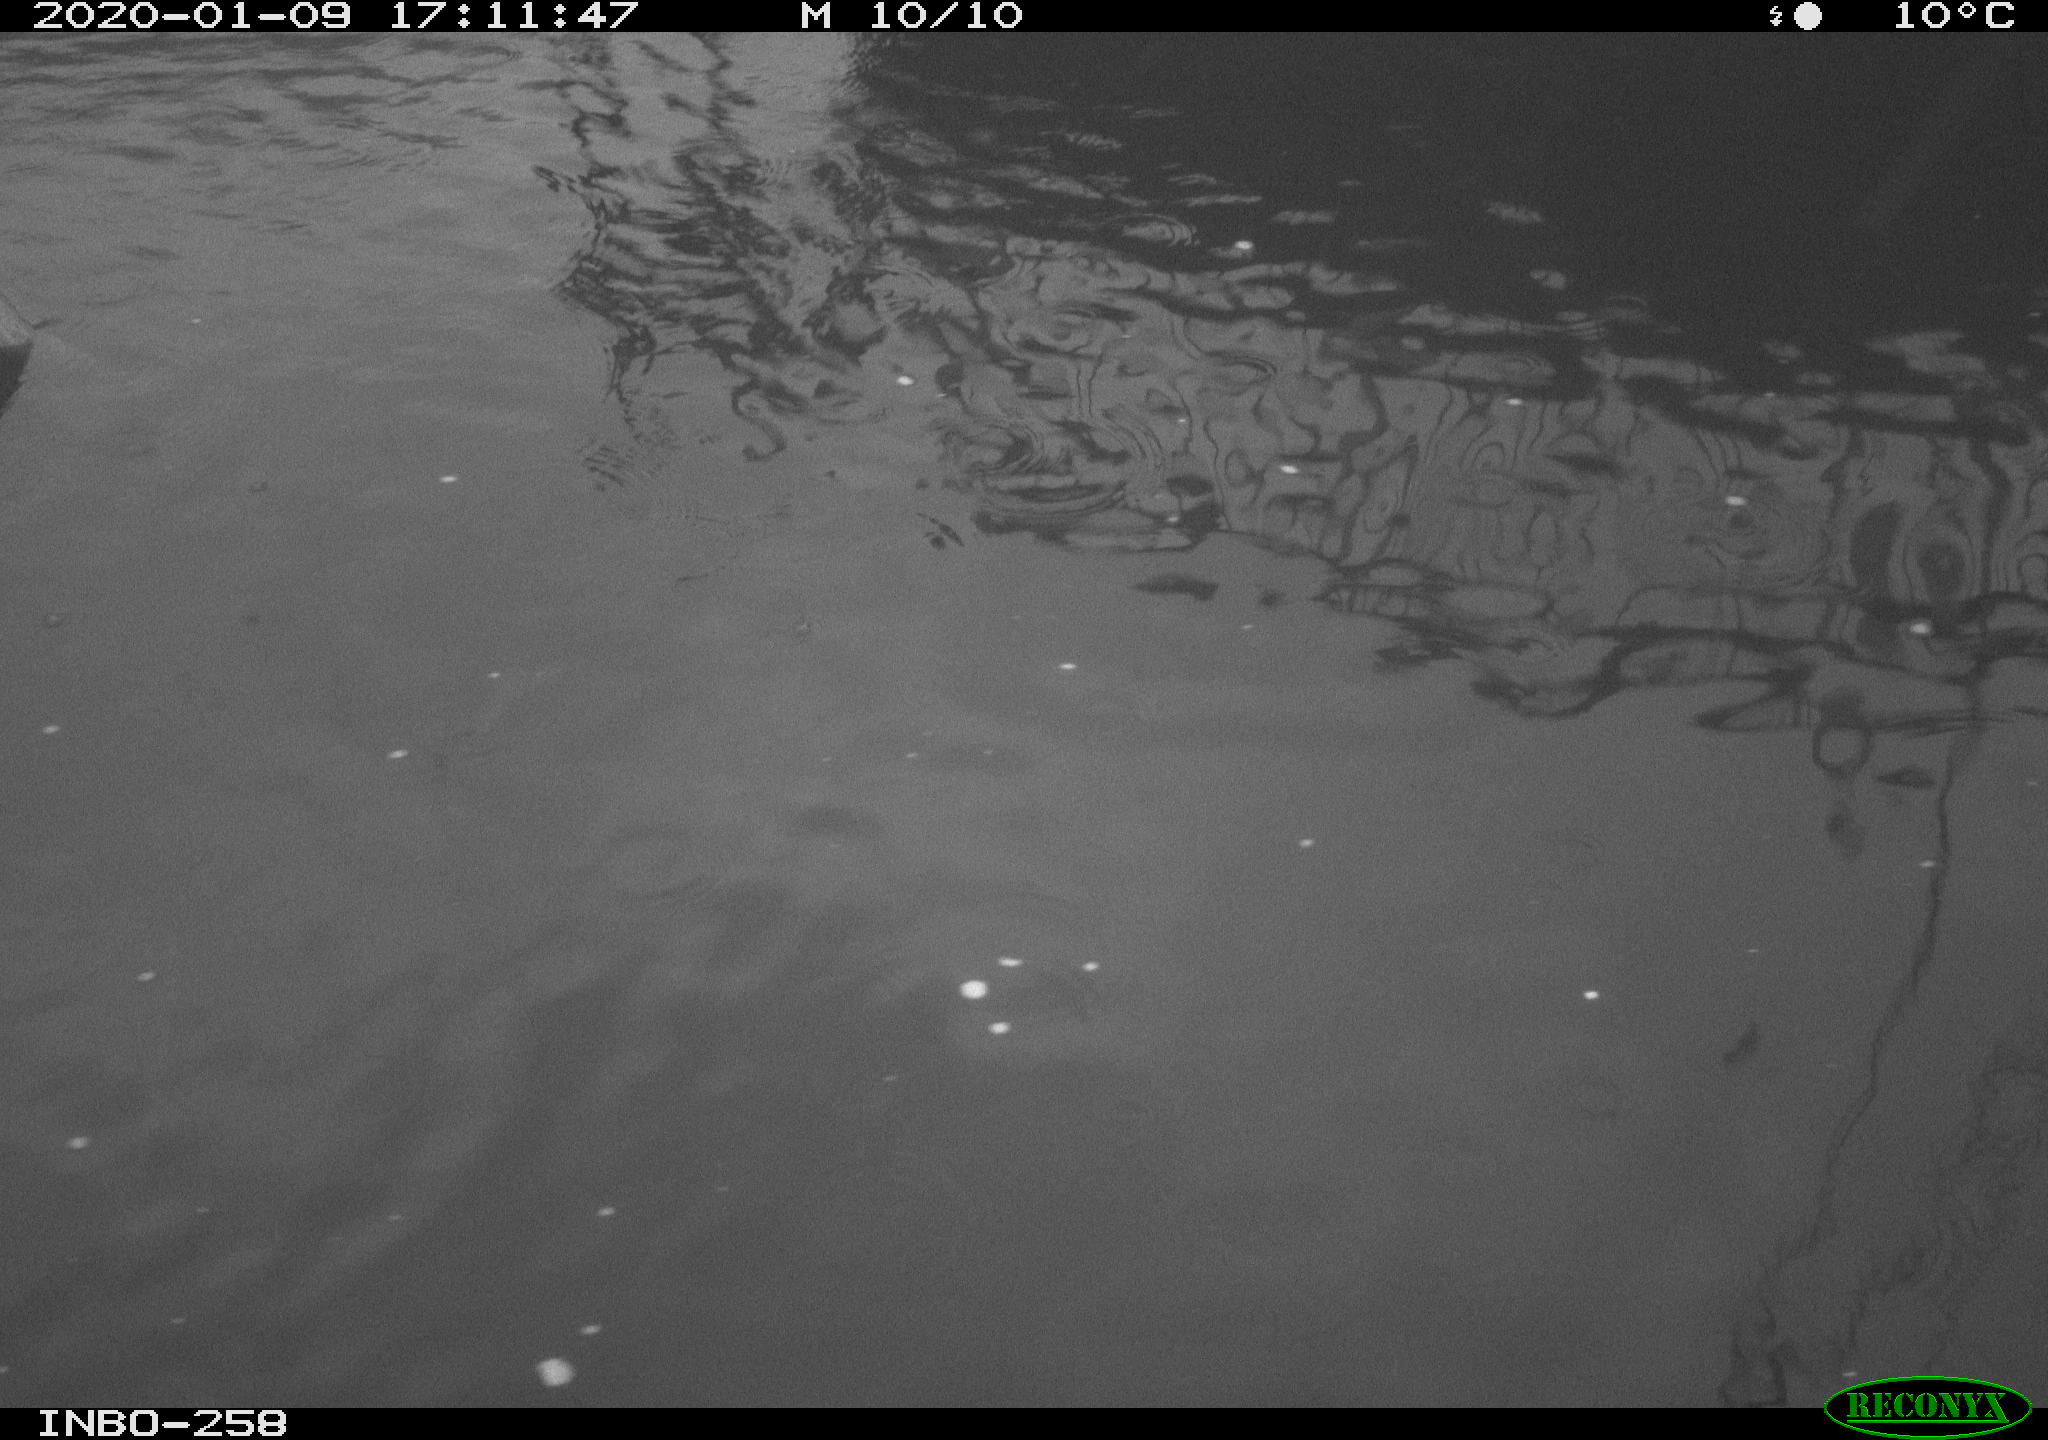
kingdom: Animalia
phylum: Chordata
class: Aves
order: Gruiformes
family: Rallidae
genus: Gallinula
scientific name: Gallinula chloropus
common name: Common moorhen
